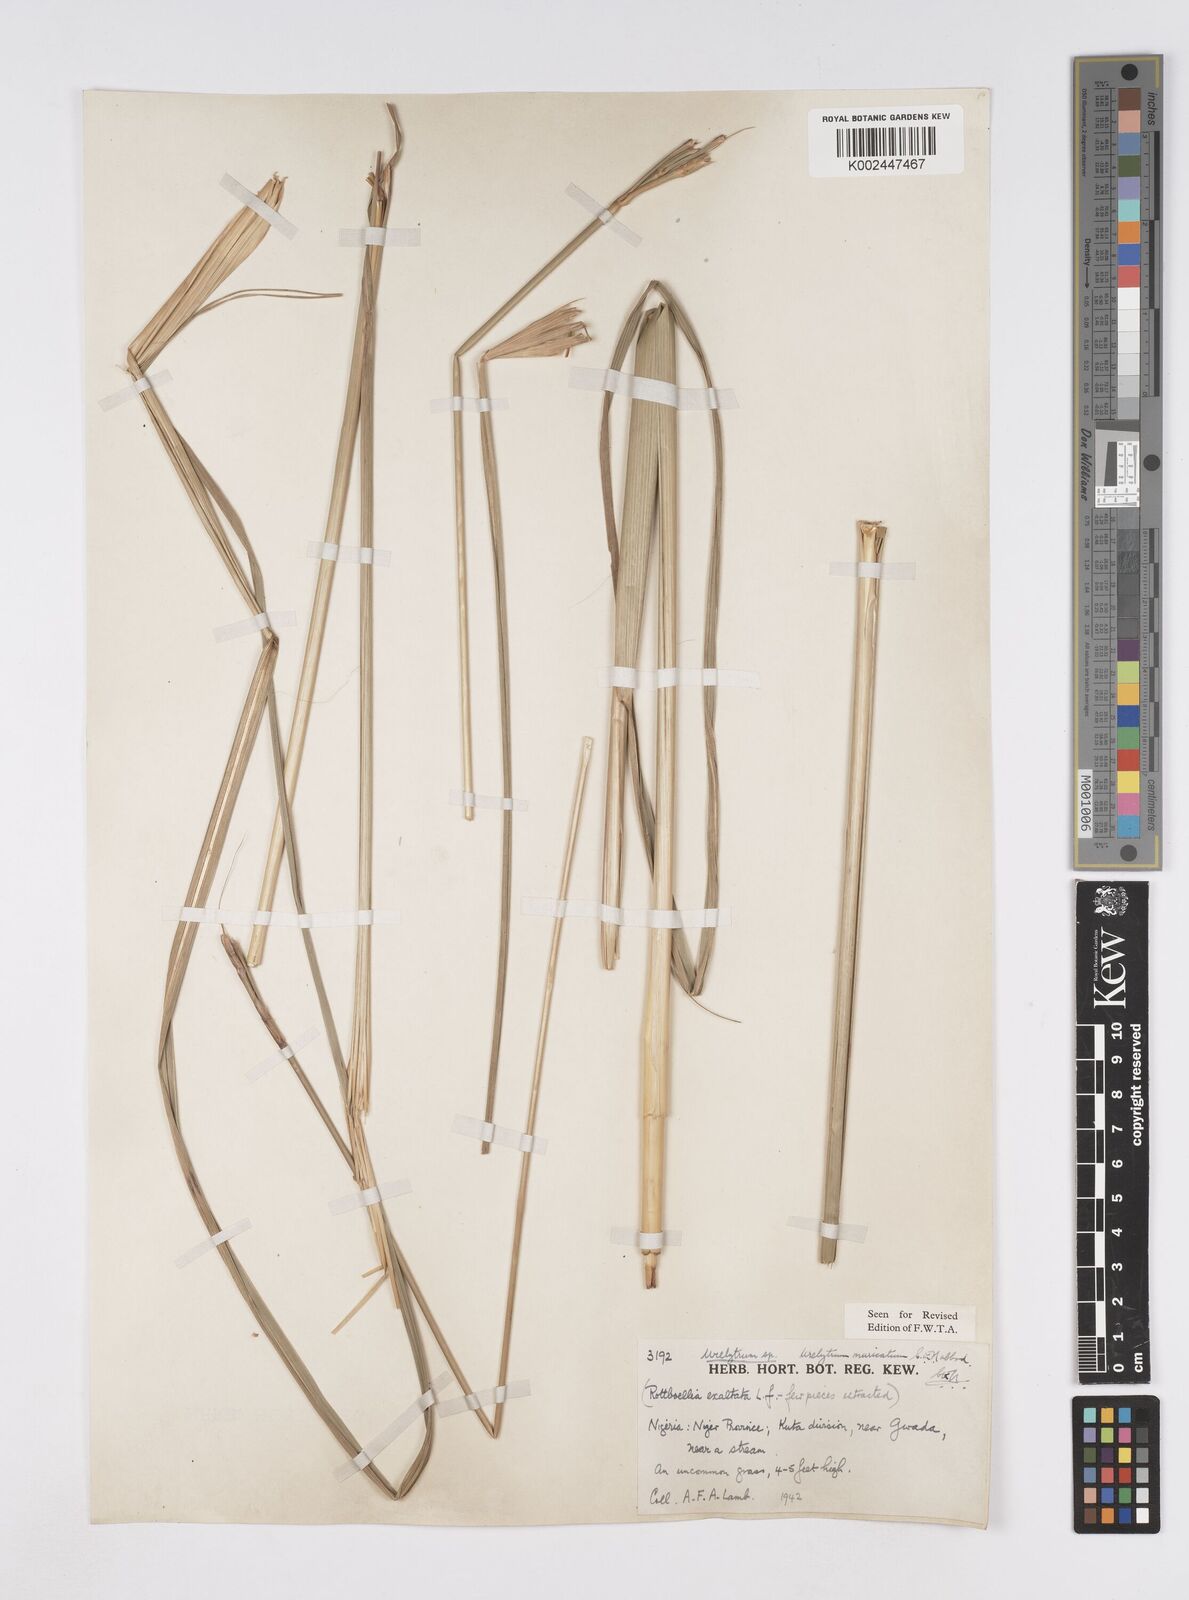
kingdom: Plantae
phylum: Tracheophyta
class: Liliopsida
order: Poales
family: Poaceae
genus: Urelytrum
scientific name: Urelytrum muricatum
